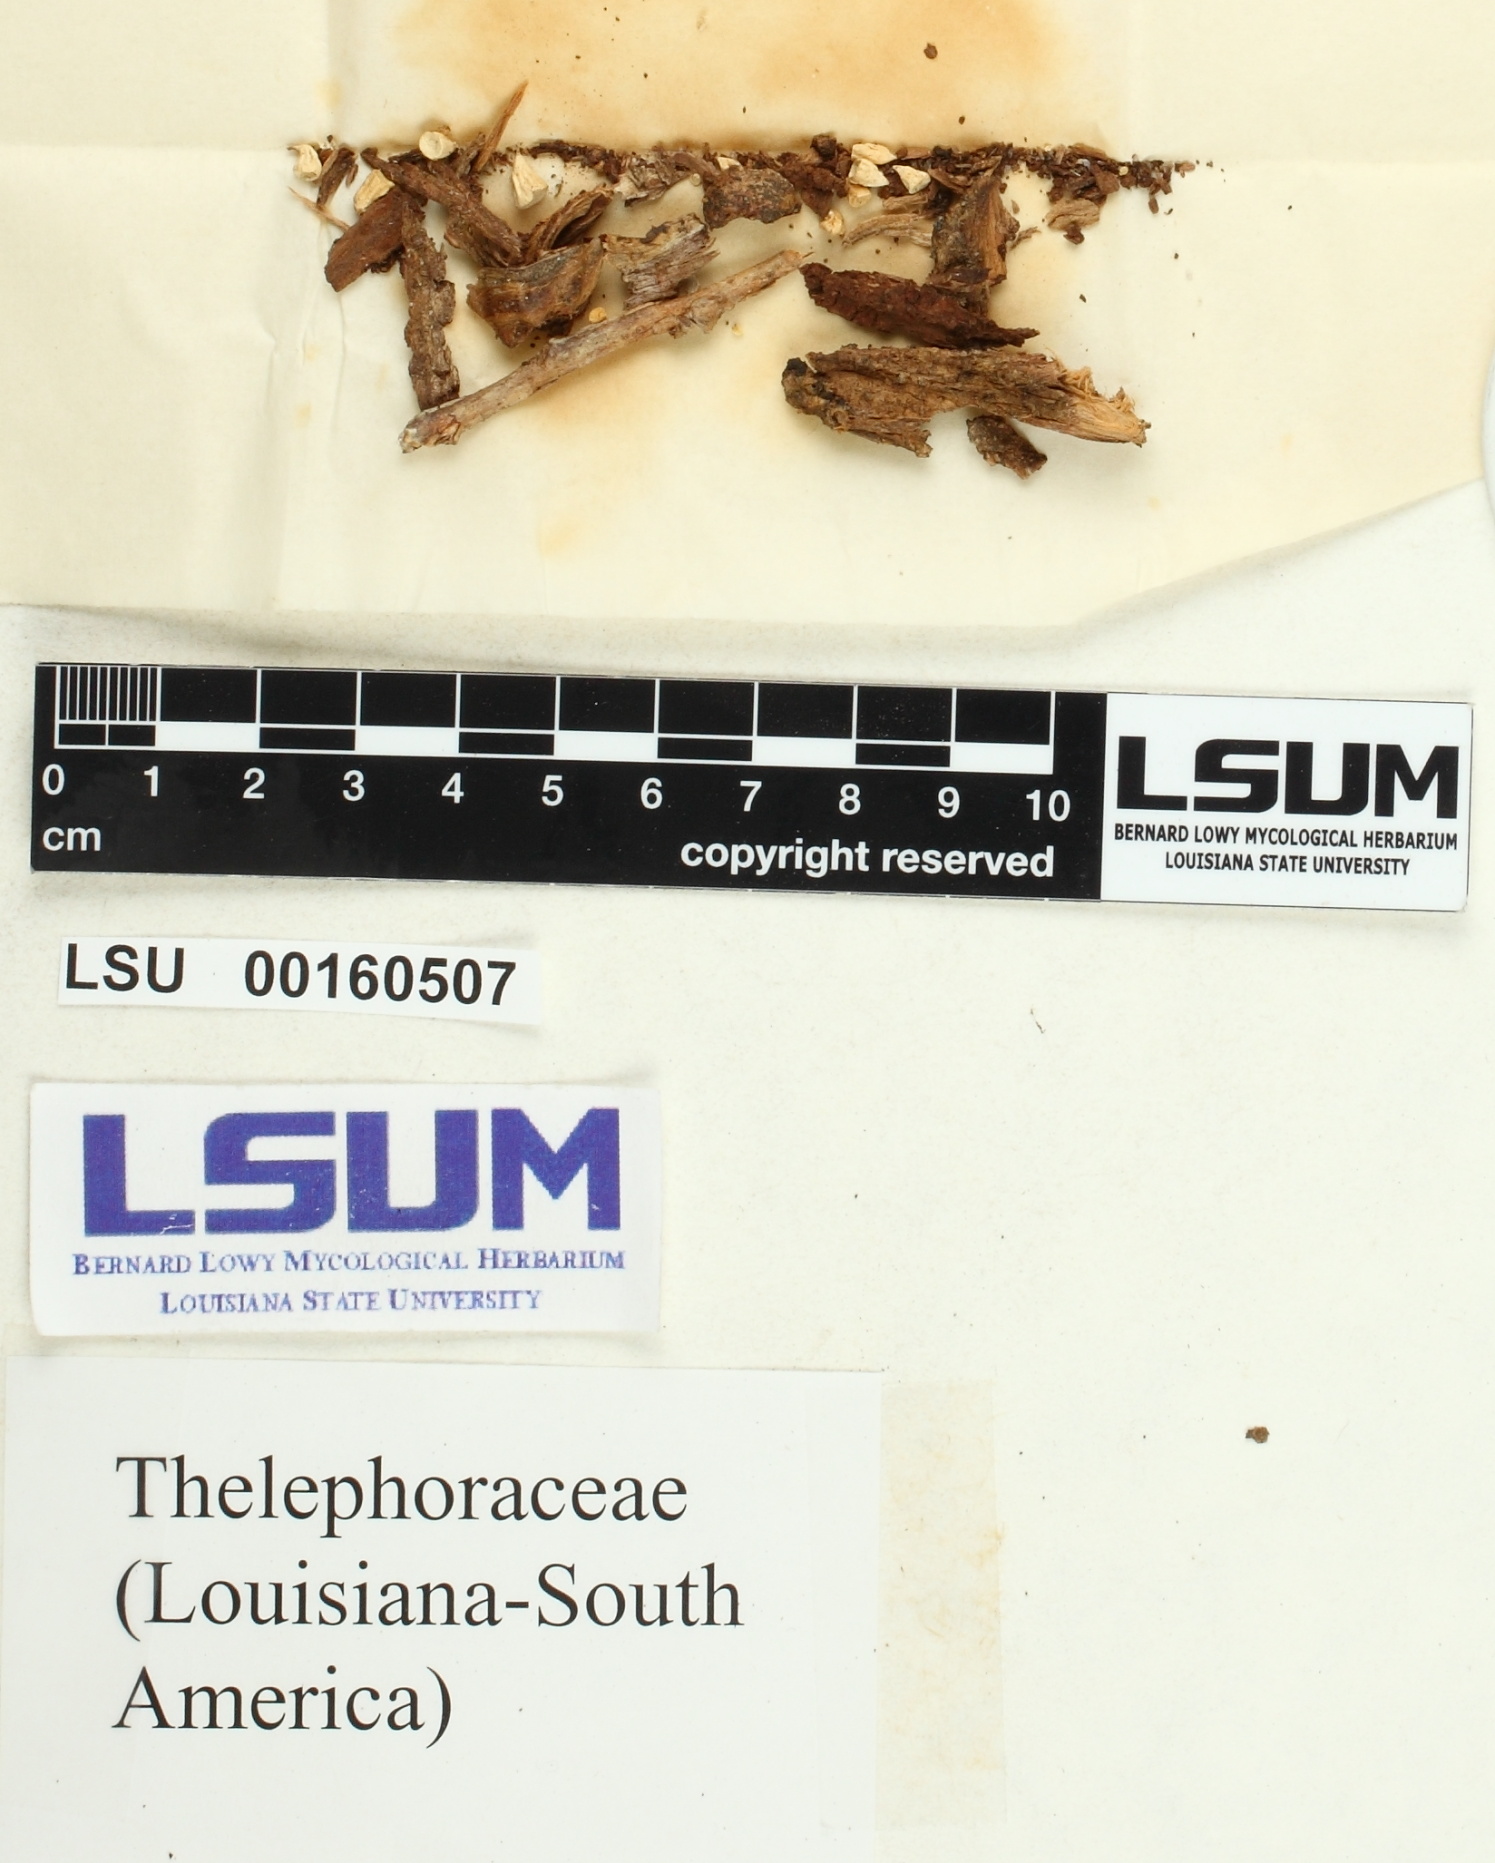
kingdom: Fungi
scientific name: Fungi
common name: Fungi
